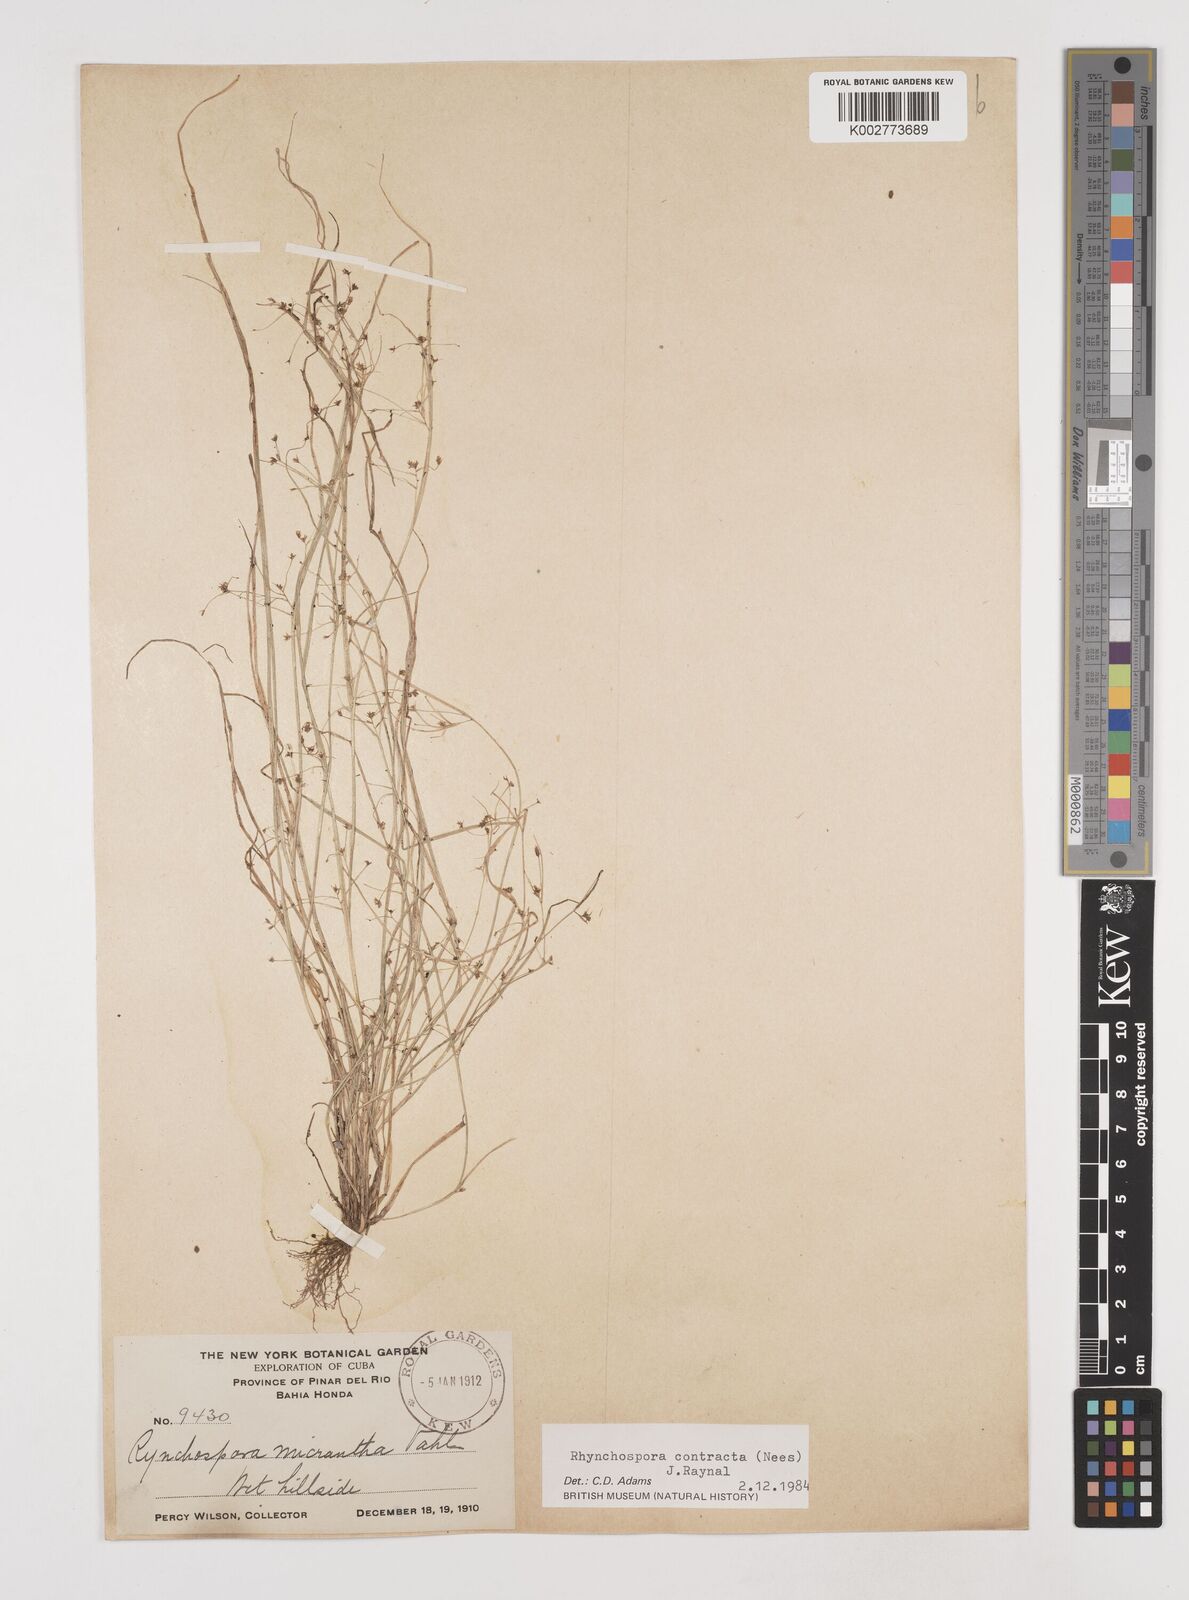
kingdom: Plantae
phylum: Tracheophyta
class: Liliopsida
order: Poales
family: Cyperaceae
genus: Rhynchospora
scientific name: Rhynchospora contracta
